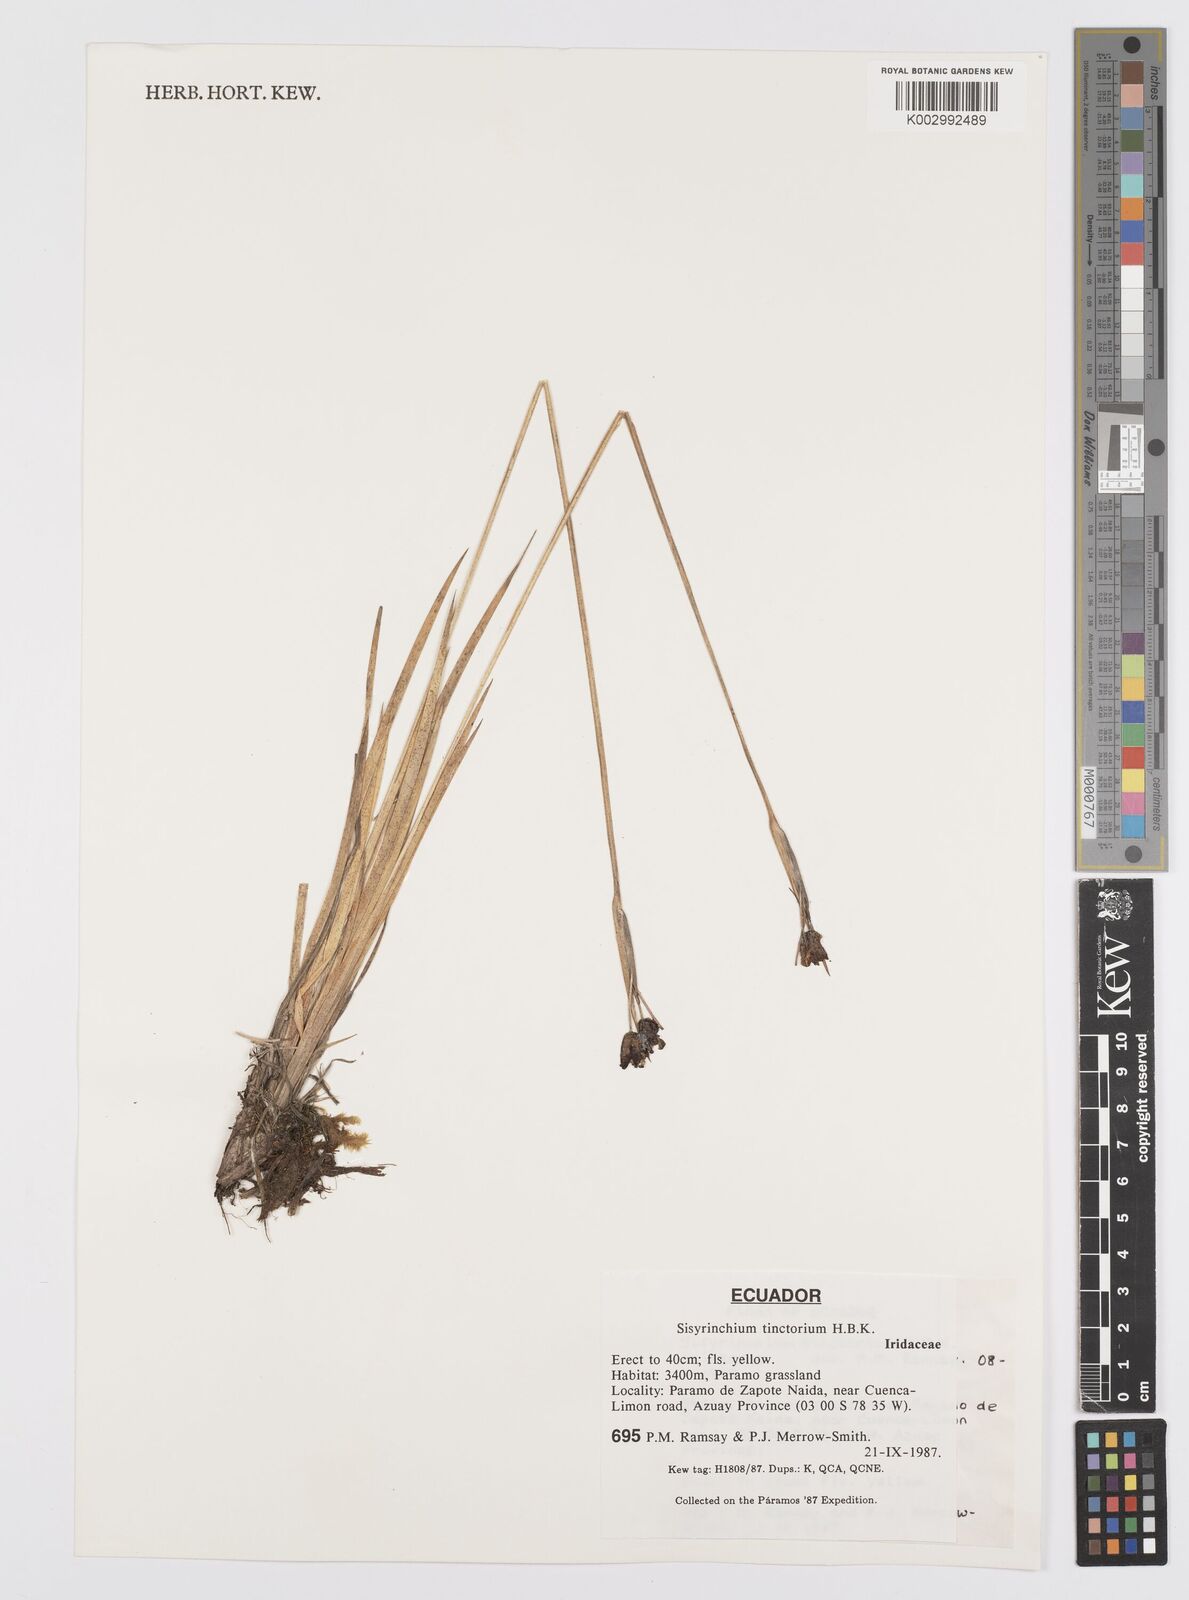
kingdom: Plantae
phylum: Tracheophyta
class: Liliopsida
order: Asparagales
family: Iridaceae
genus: Sisyrinchium
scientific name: Sisyrinchium tinctorium
